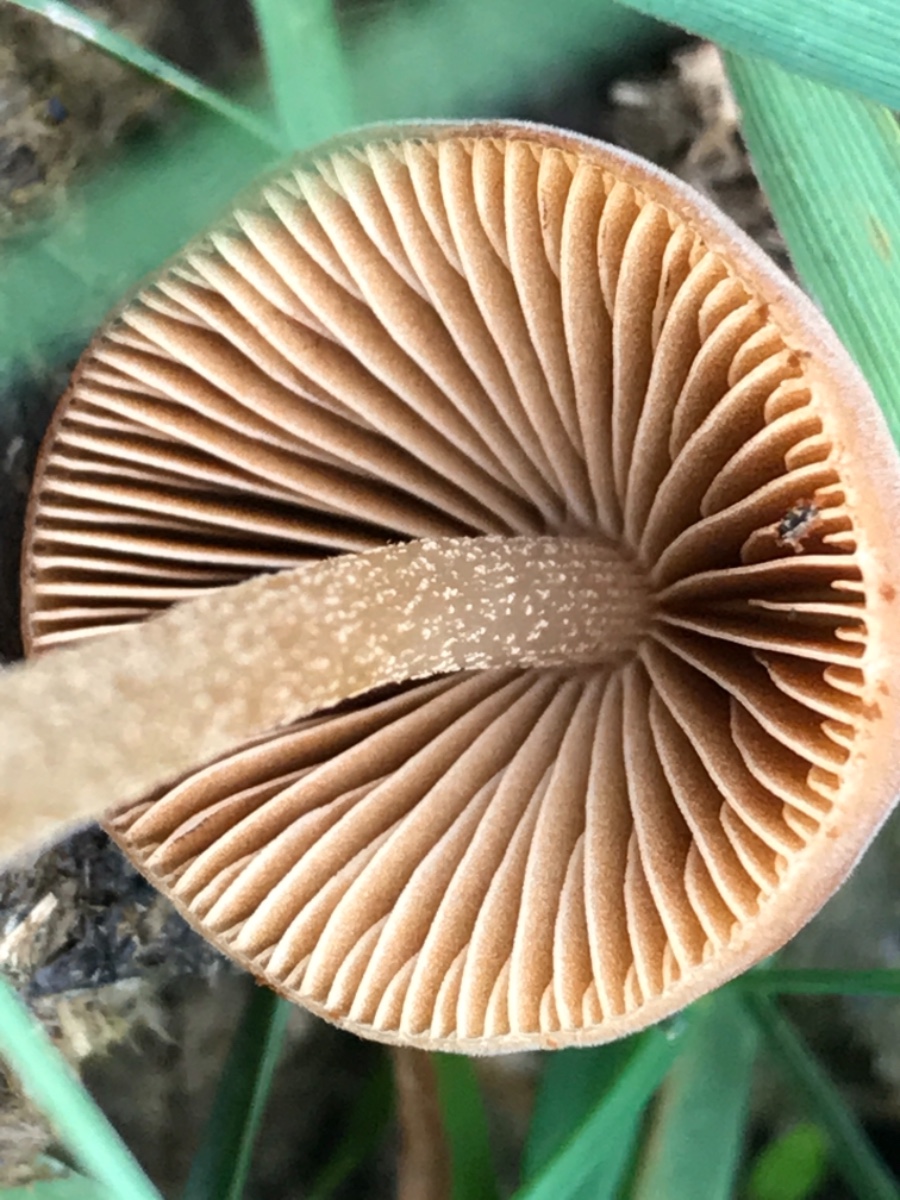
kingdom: Fungi
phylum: Basidiomycota
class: Agaricomycetes
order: Agaricales
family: Bolbitiaceae
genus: Conocybe
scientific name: Conocybe
